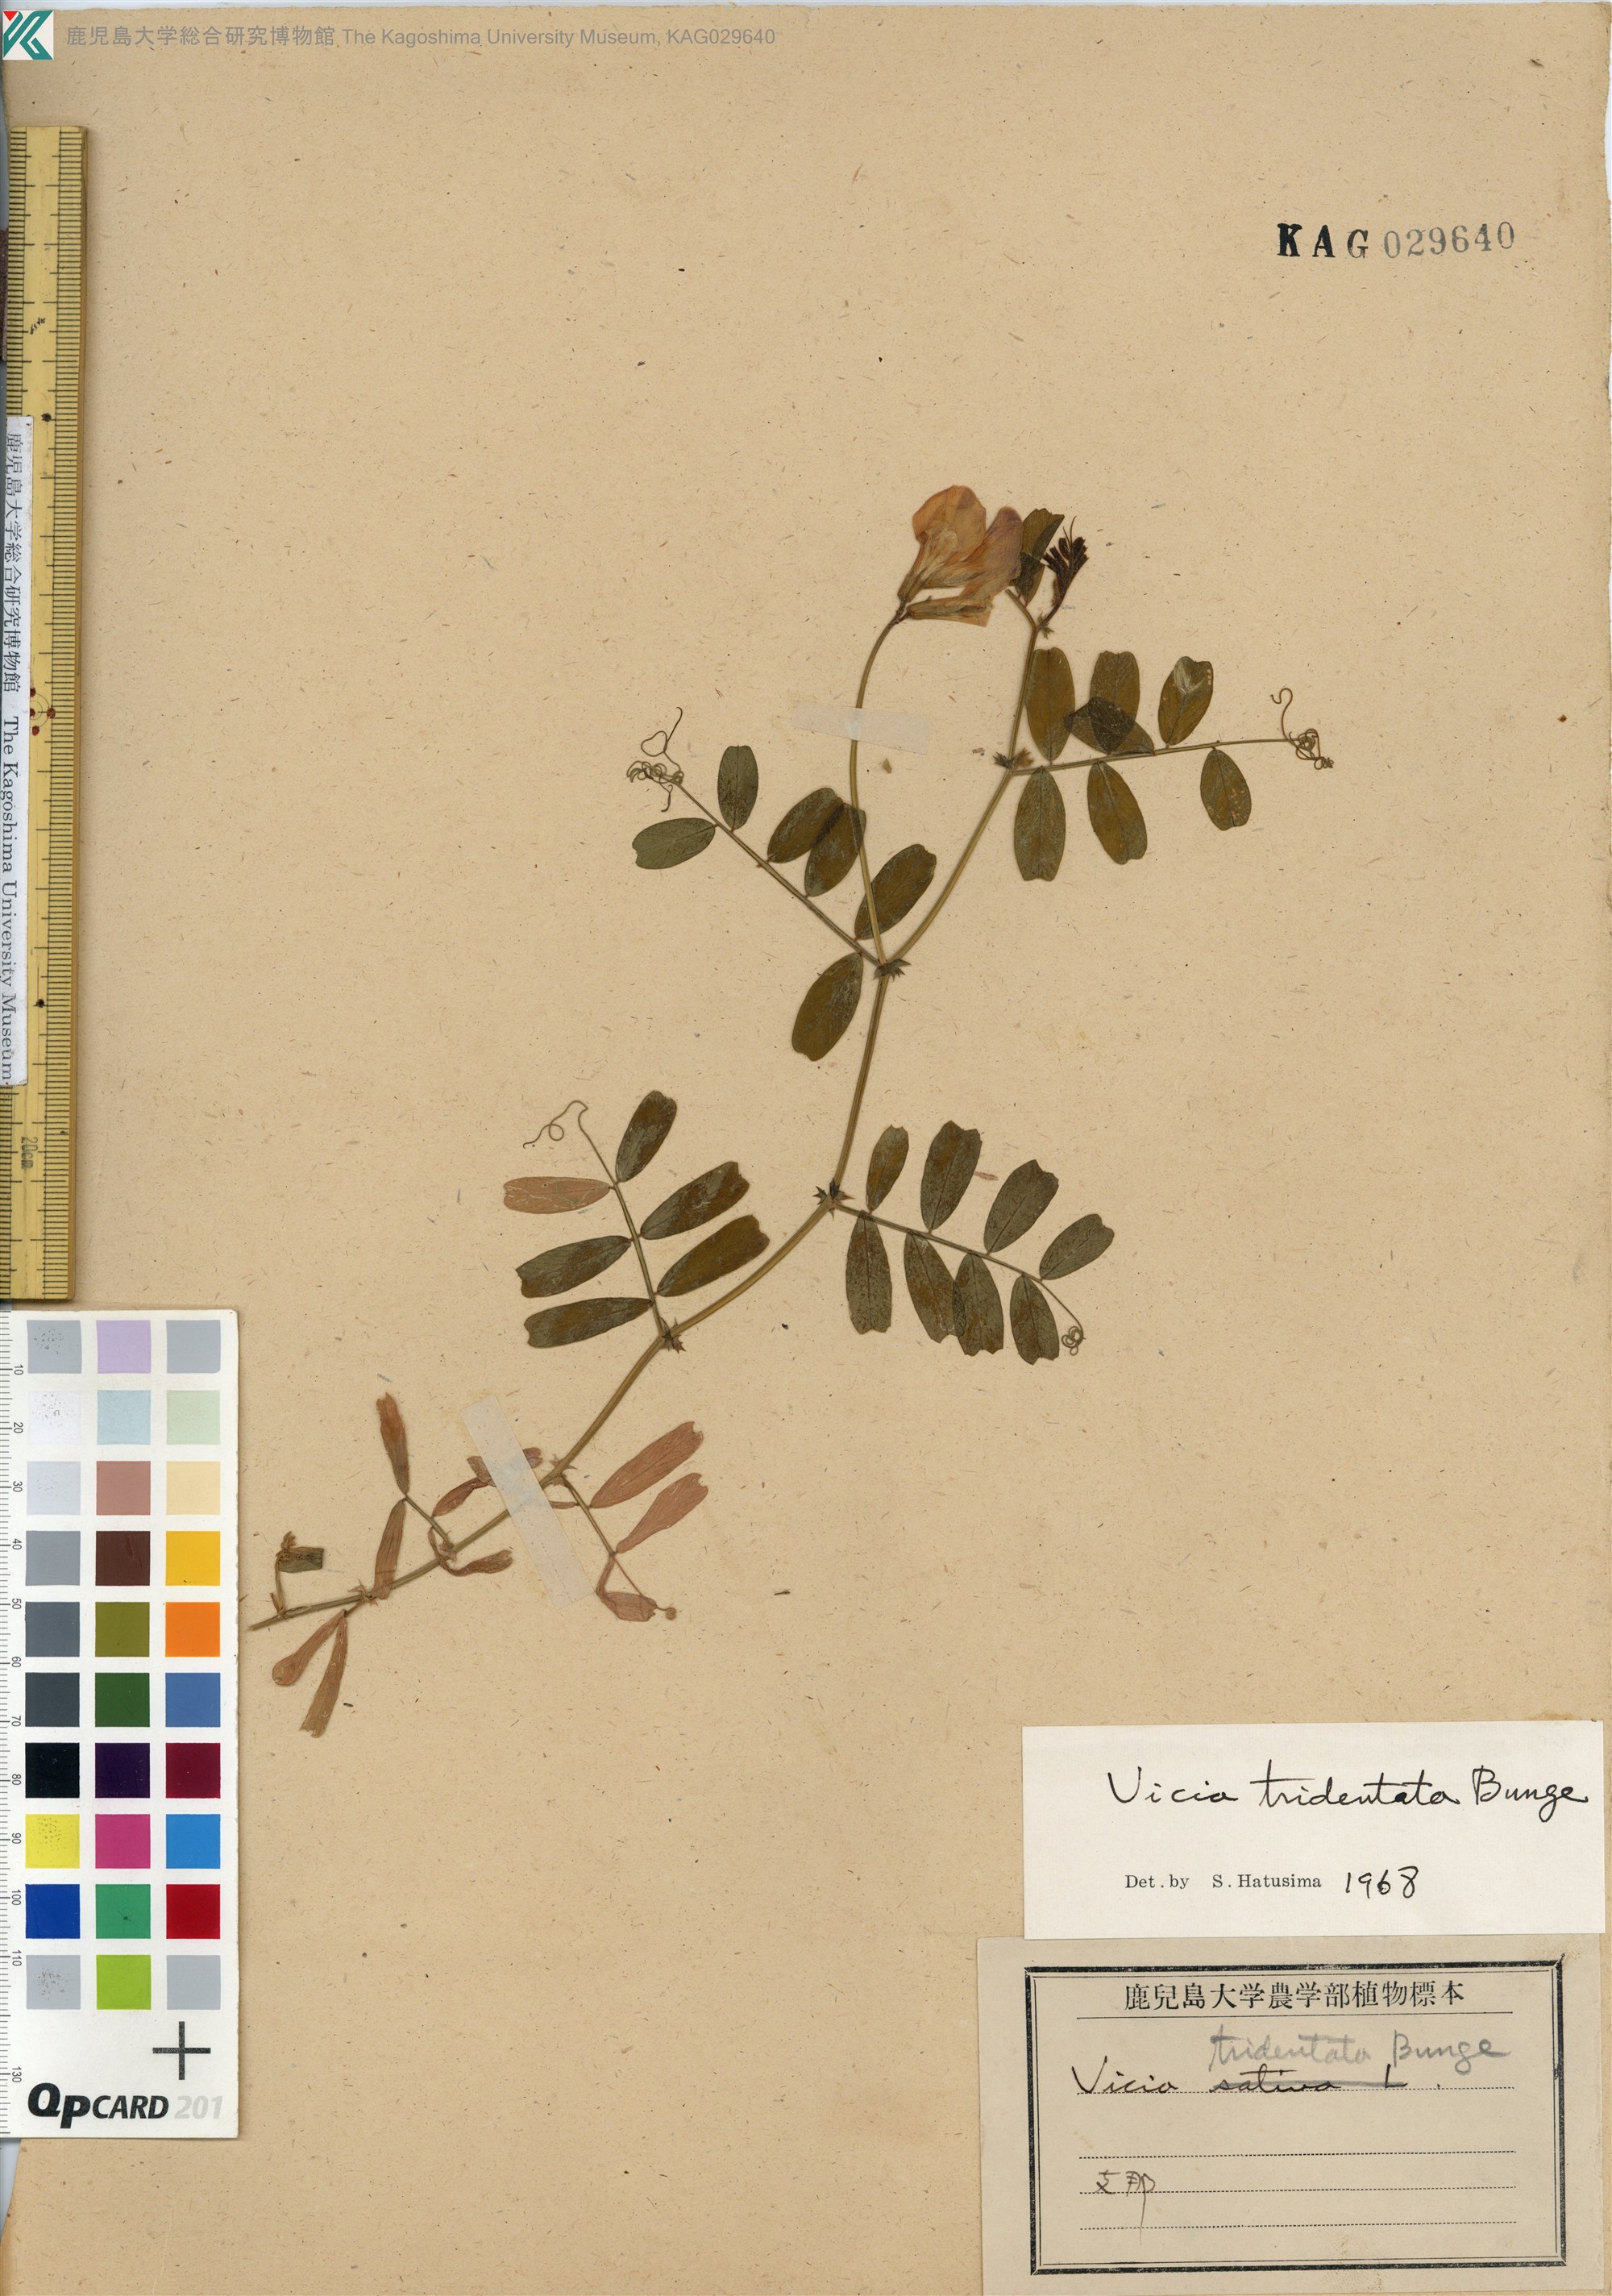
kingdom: Plantae
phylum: Tracheophyta
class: Magnoliopsida
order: Fabales
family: Fabaceae
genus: Vicia
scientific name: Vicia bungei
